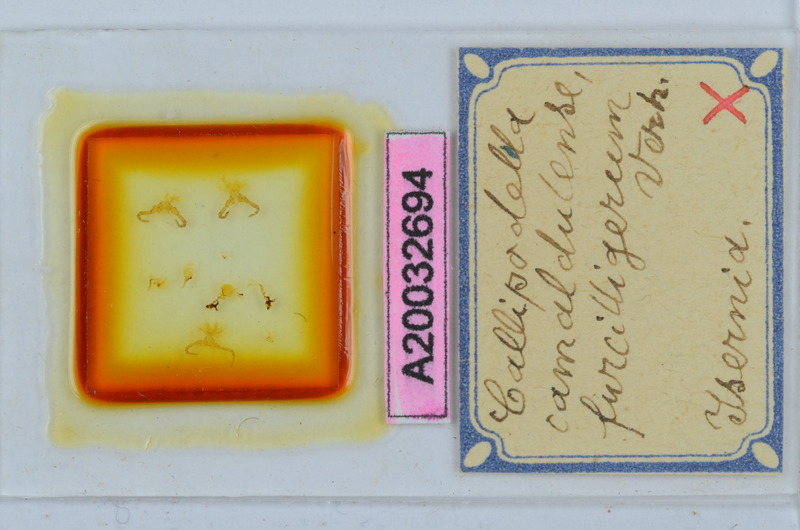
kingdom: Animalia
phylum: Arthropoda
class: Diplopoda
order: Callipodida
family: Schizopetalidae
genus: Callipodella
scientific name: Callipodella vinciguerrae
